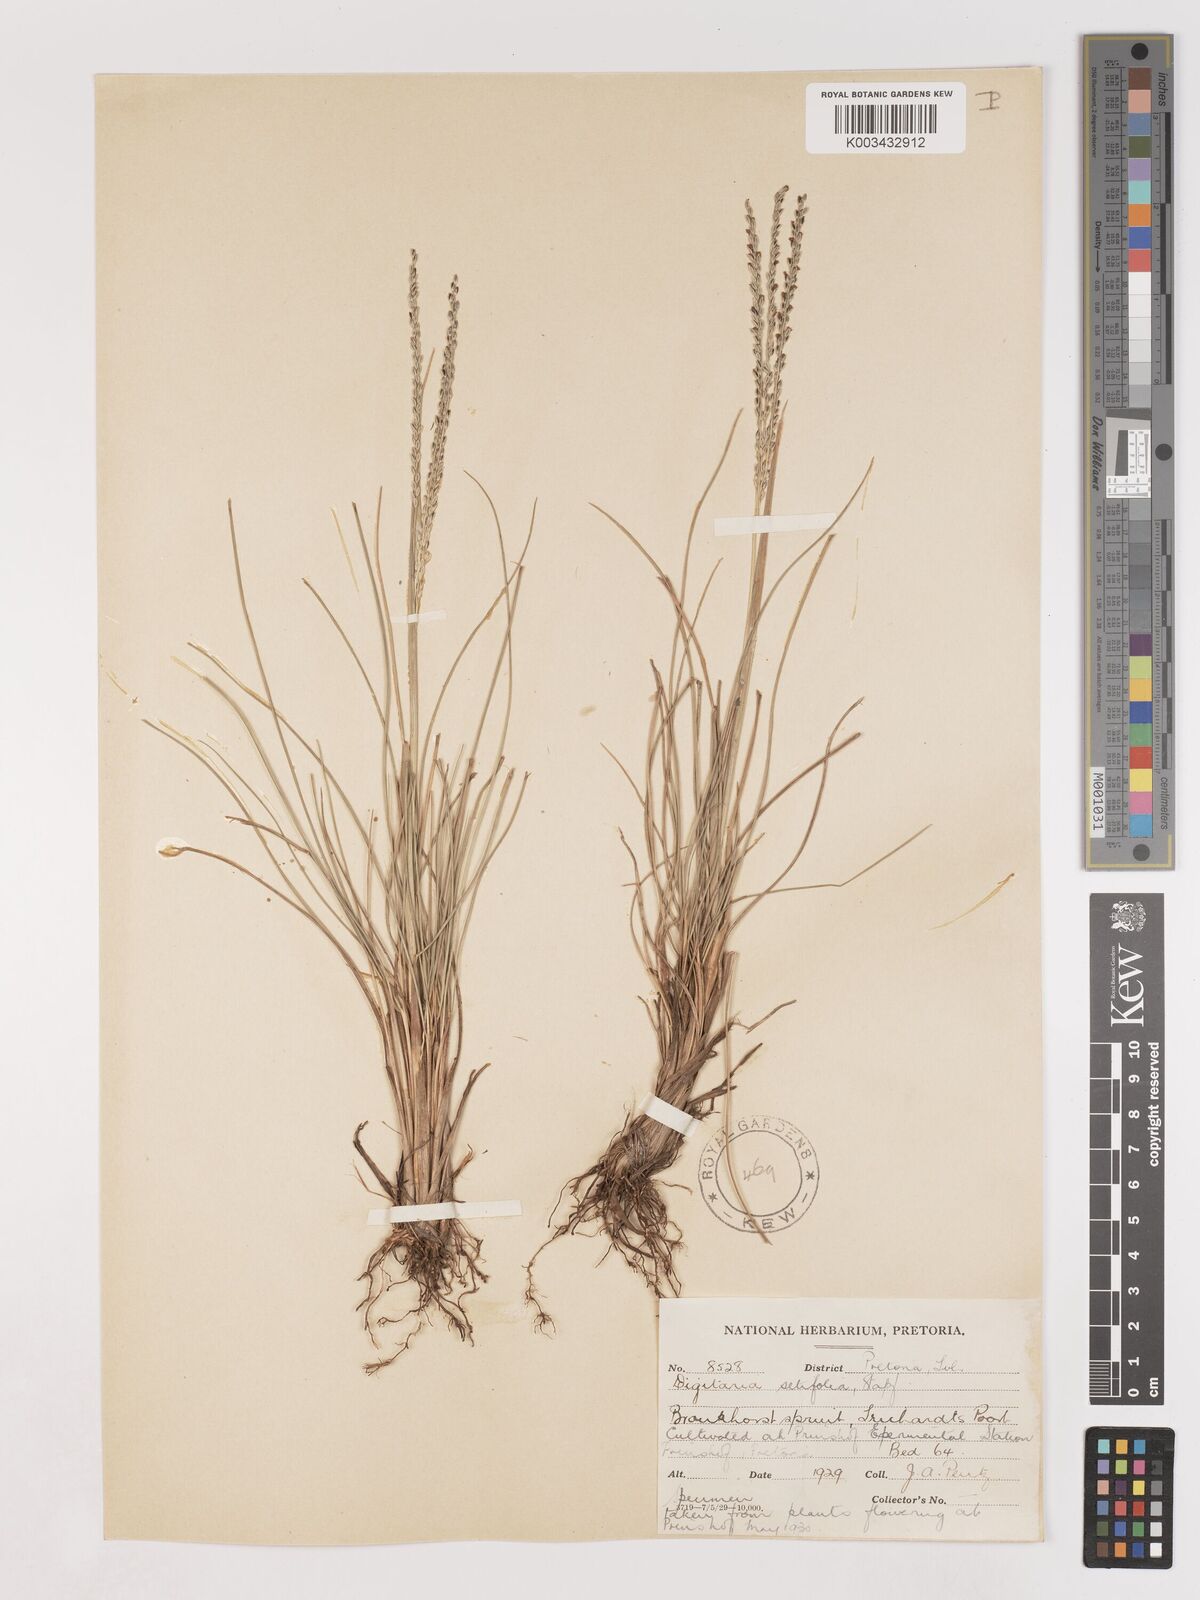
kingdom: Plantae
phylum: Tracheophyta
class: Liliopsida
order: Poales
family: Poaceae
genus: Digitaria
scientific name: Digitaria setifolia
